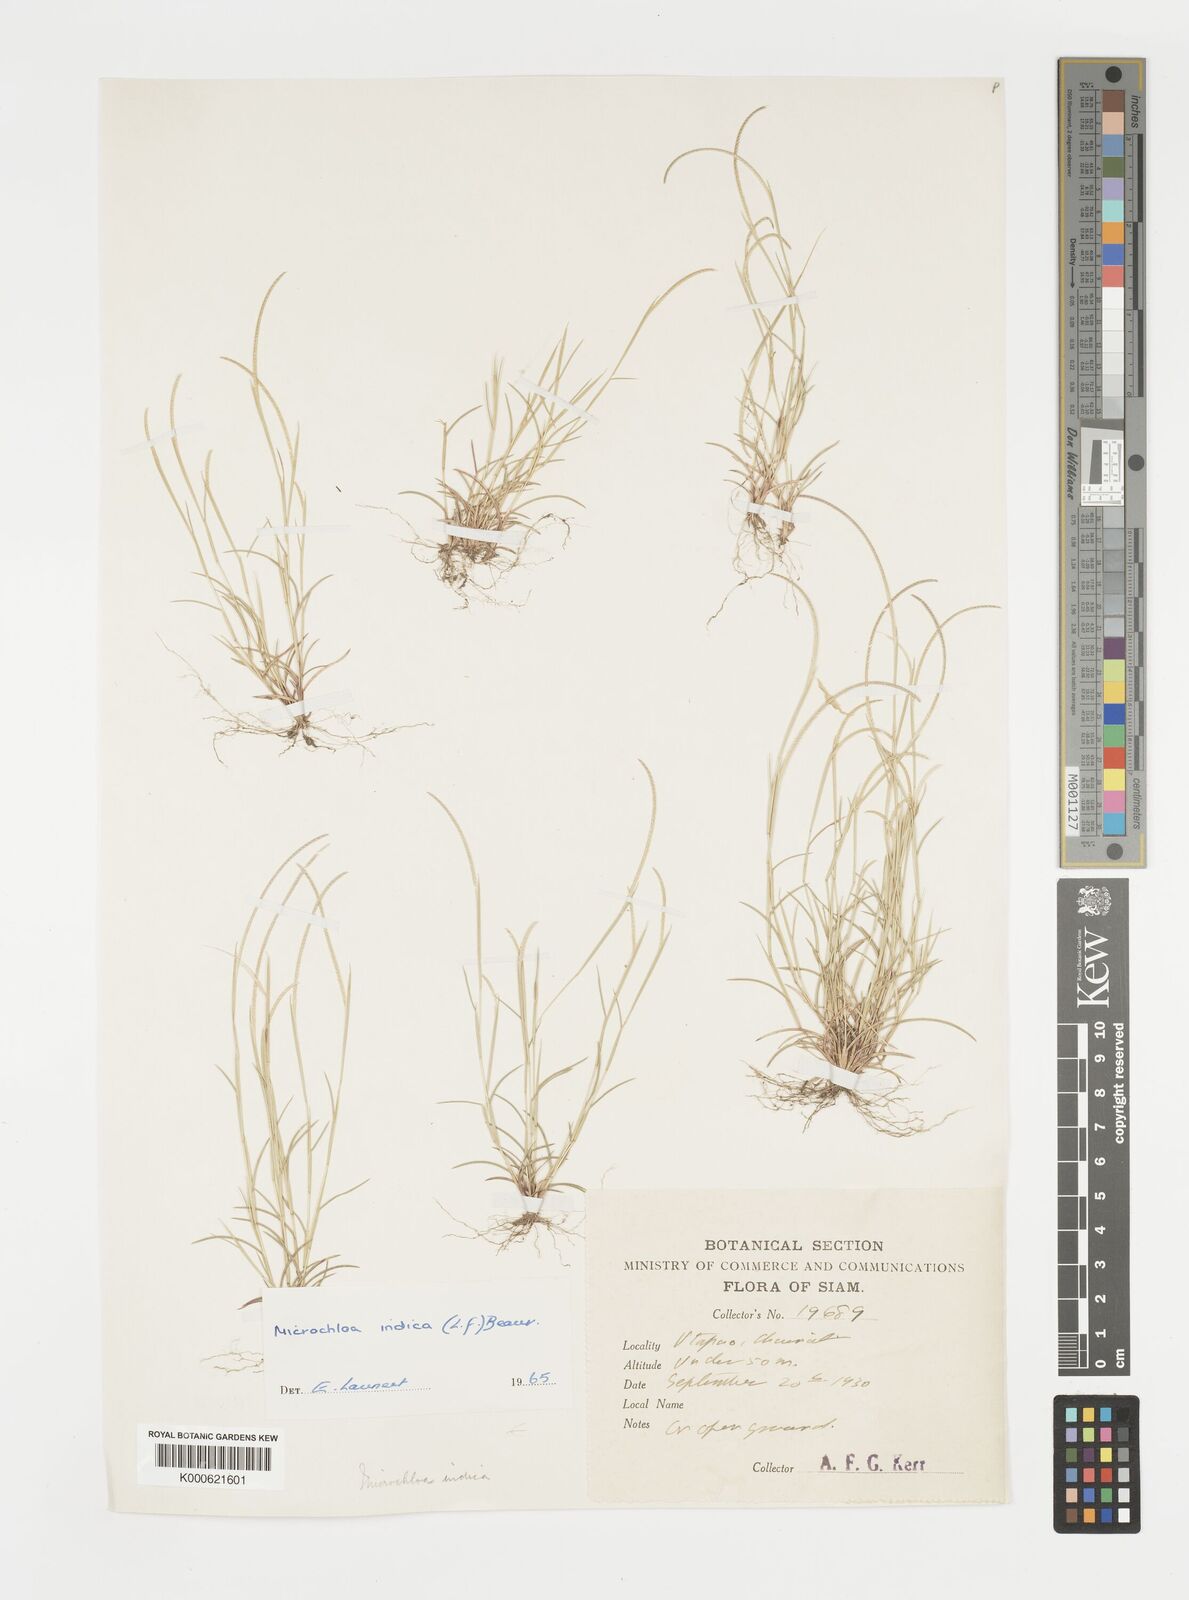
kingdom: Plantae
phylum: Tracheophyta
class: Liliopsida
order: Poales
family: Poaceae
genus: Microchloa
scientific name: Microchloa indica
